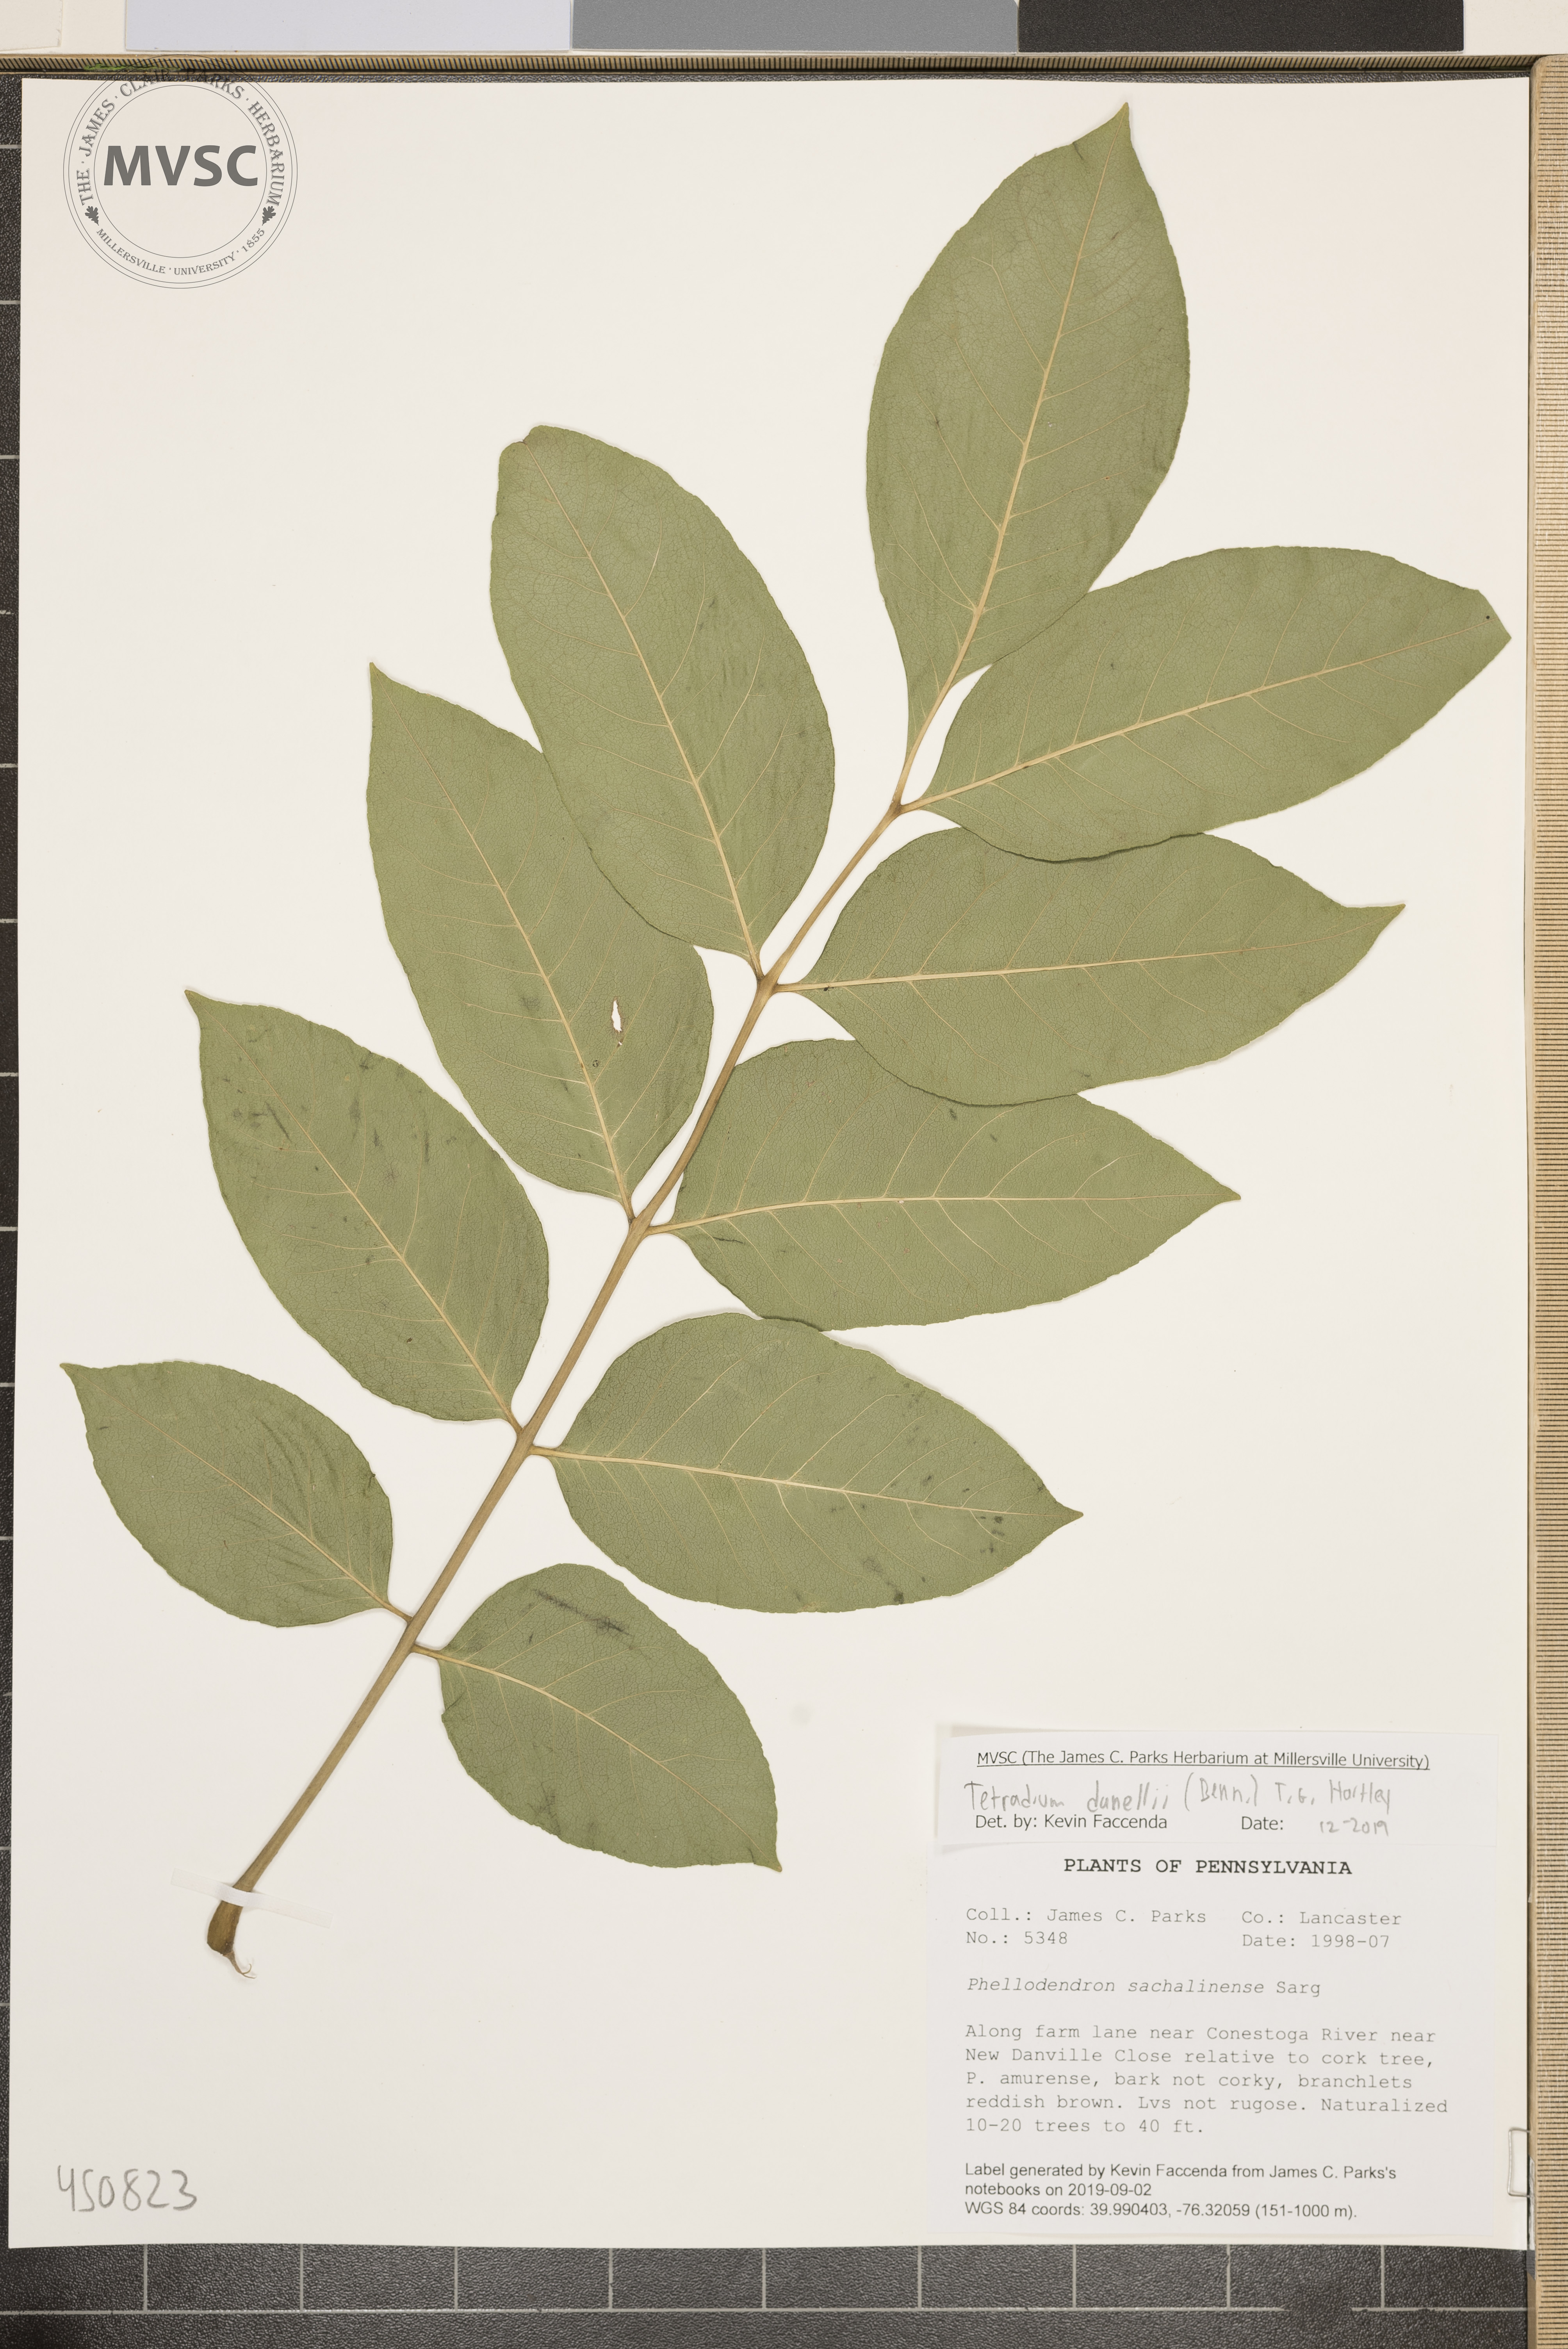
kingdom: Plantae
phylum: Tracheophyta
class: Magnoliopsida
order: Sapindales
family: Rutaceae
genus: Tetradium
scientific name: Tetradium daniellii
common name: Bee-bee tree
